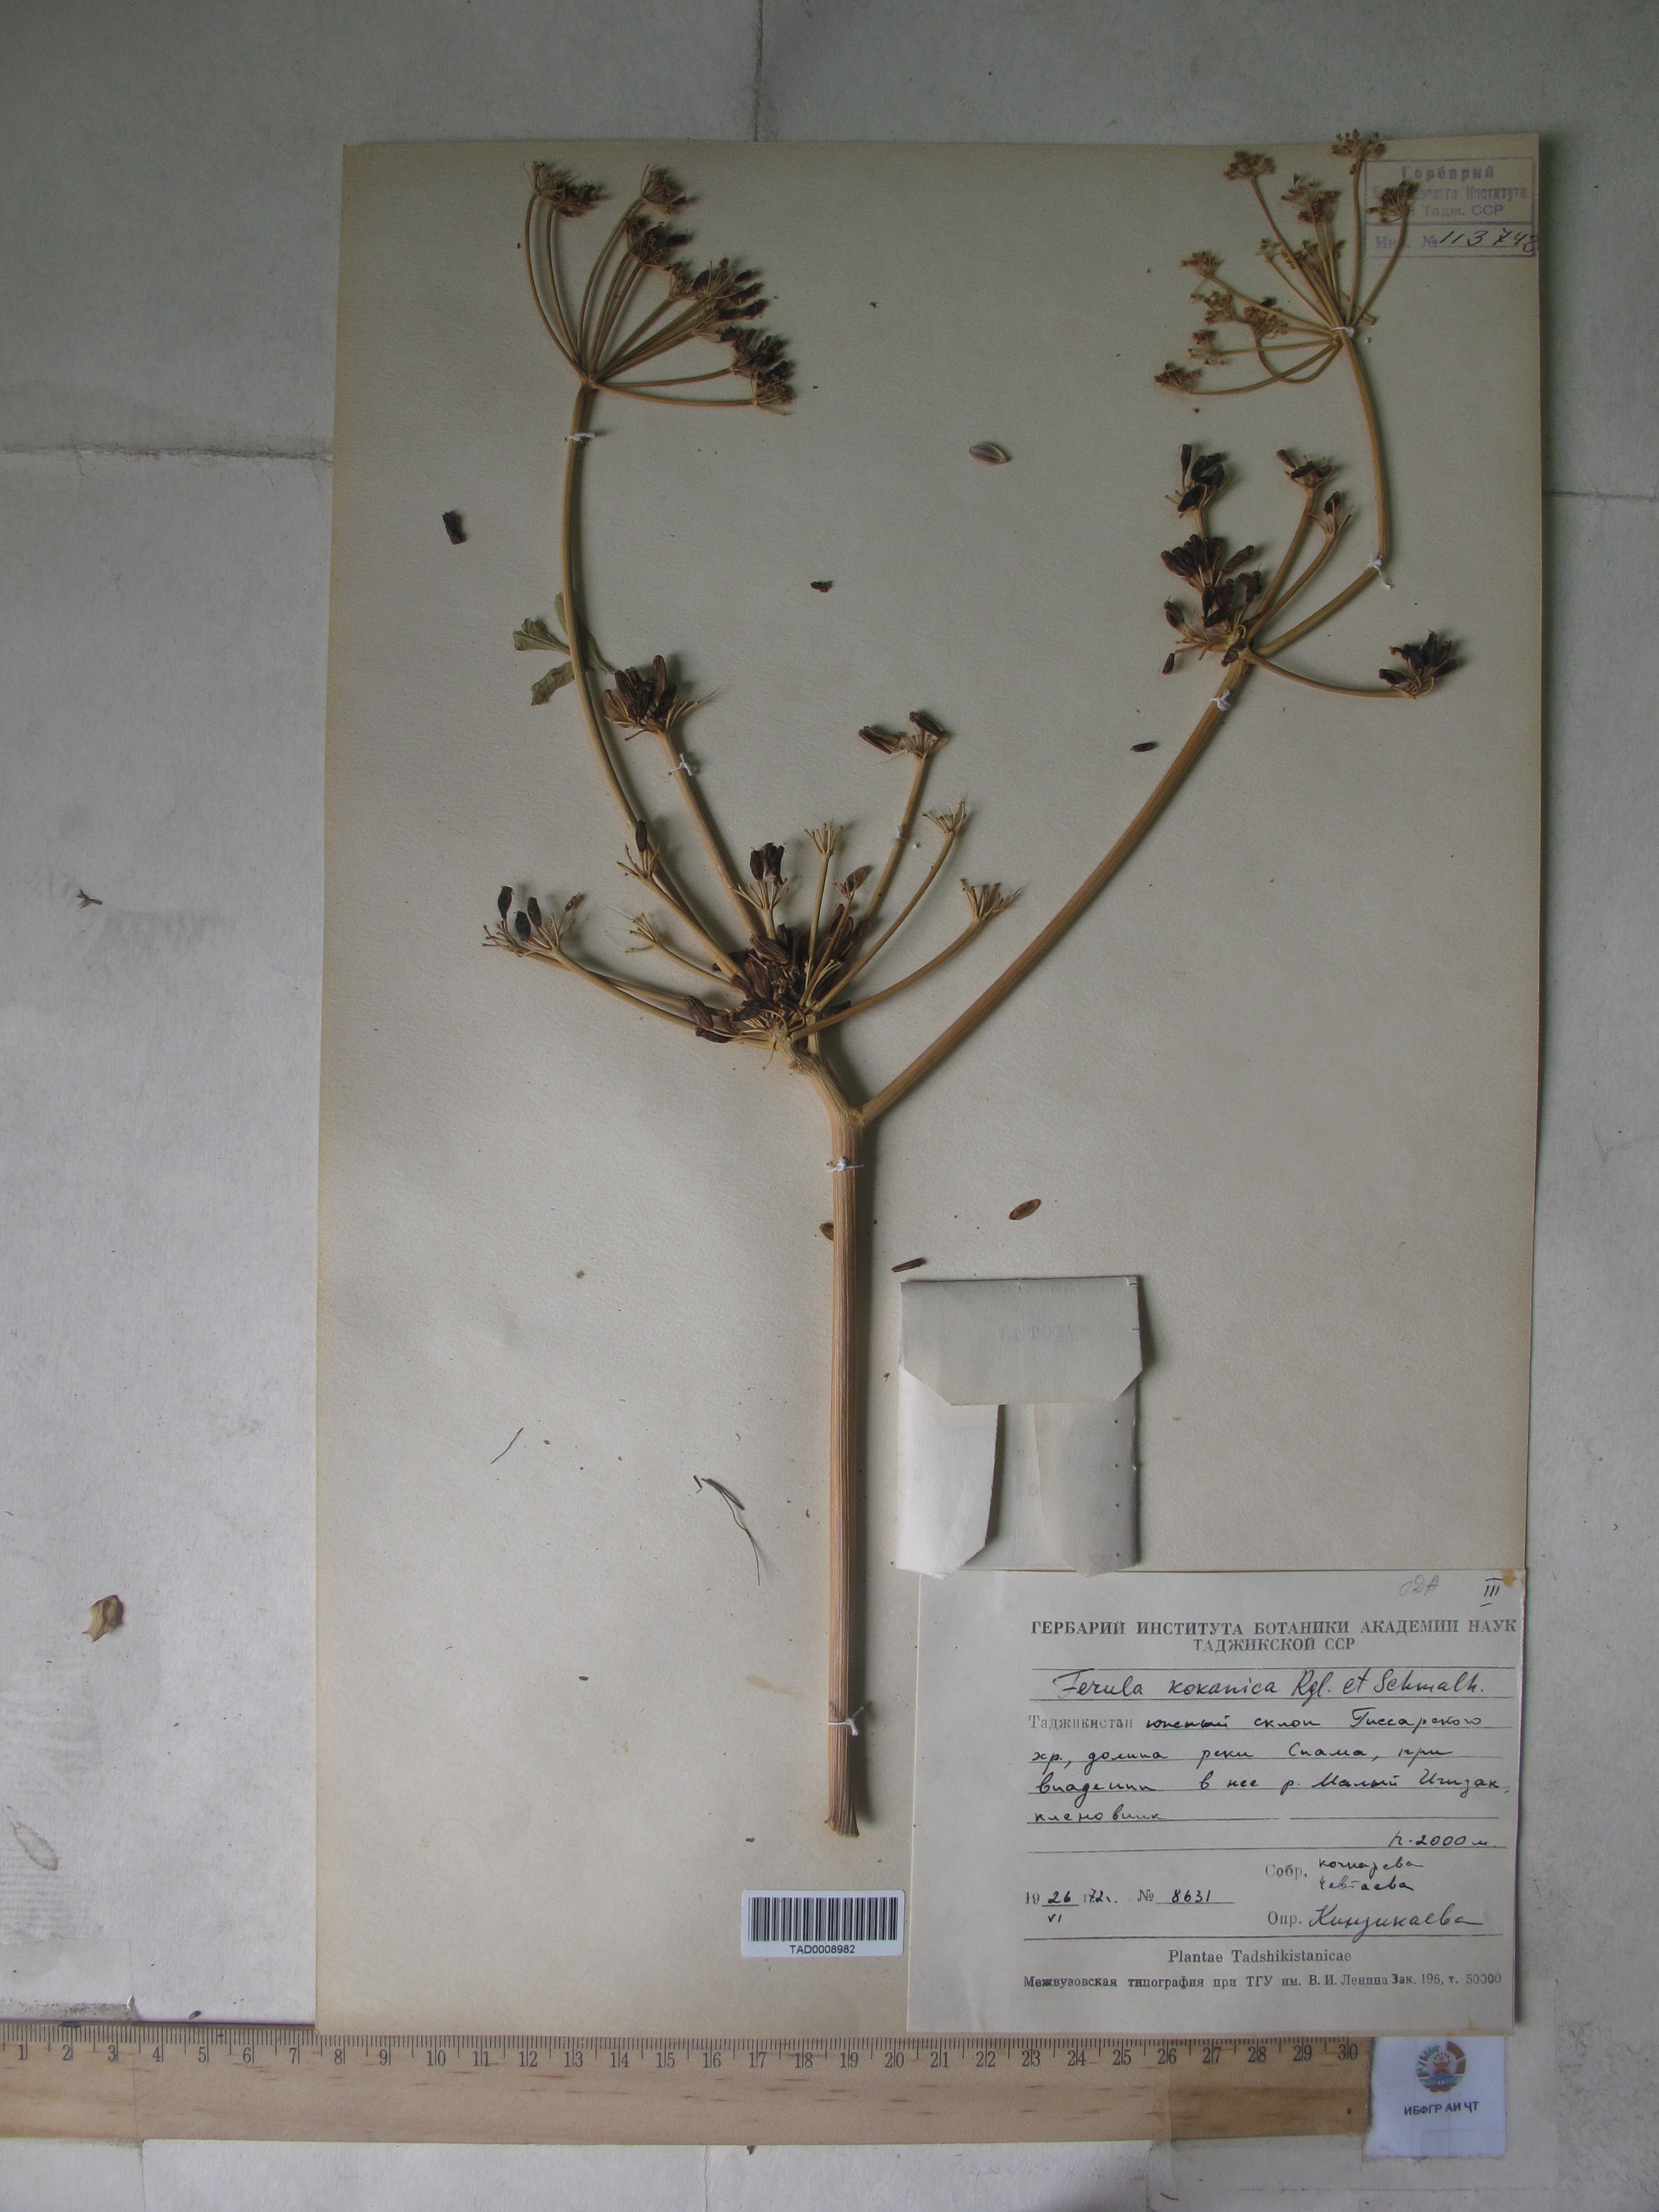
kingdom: Plantae
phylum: Tracheophyta
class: Magnoliopsida
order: Apiales
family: Apiaceae
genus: Ferula
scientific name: Ferula kokanica
